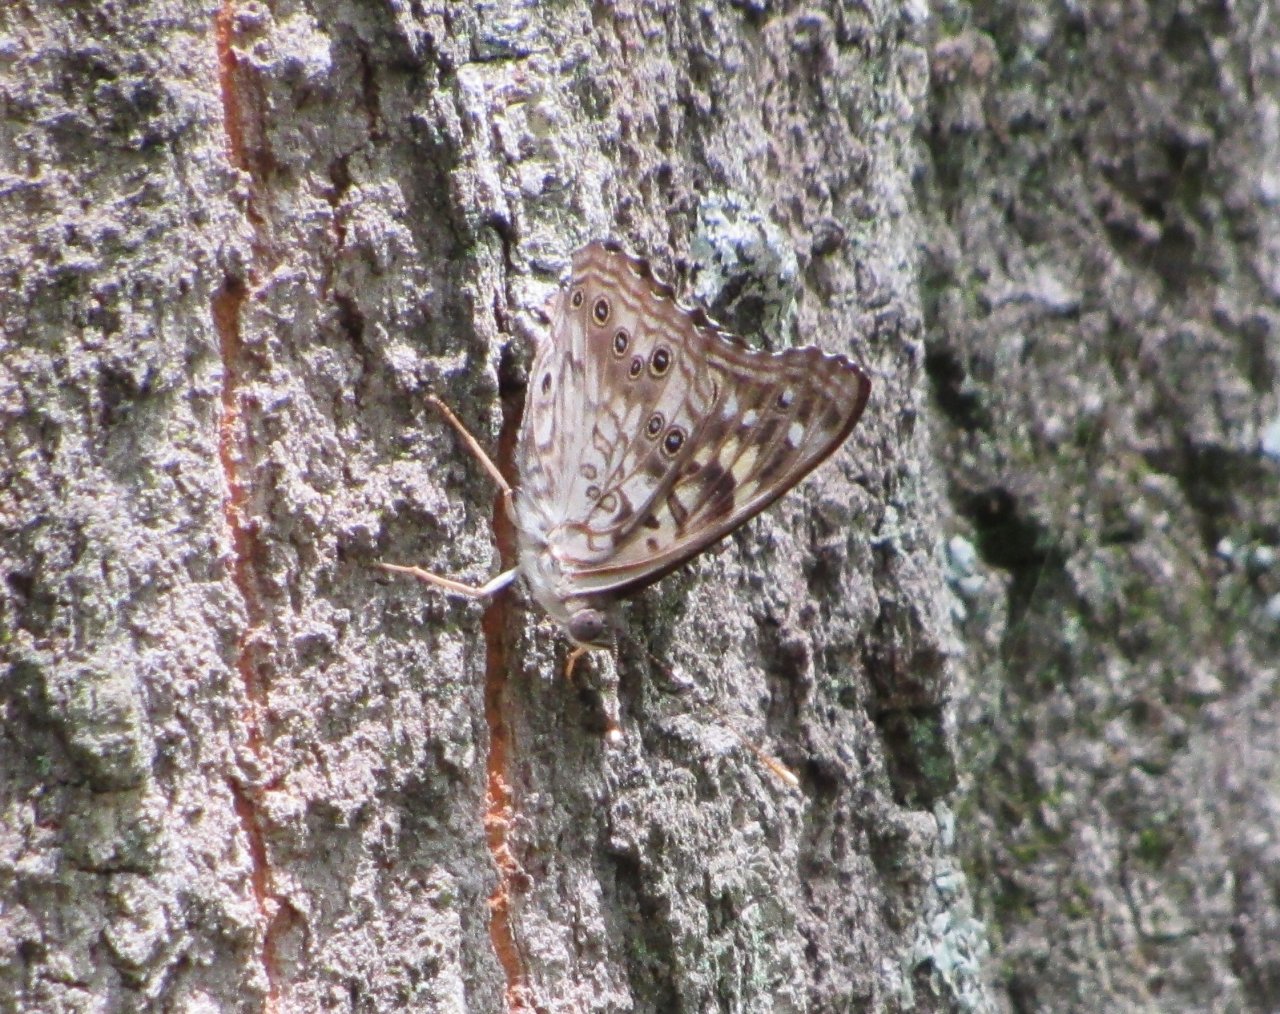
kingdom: Animalia
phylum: Arthropoda
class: Insecta
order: Lepidoptera
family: Nymphalidae
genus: Asterocampa
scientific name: Asterocampa celtis
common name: Hackberry Emperor
